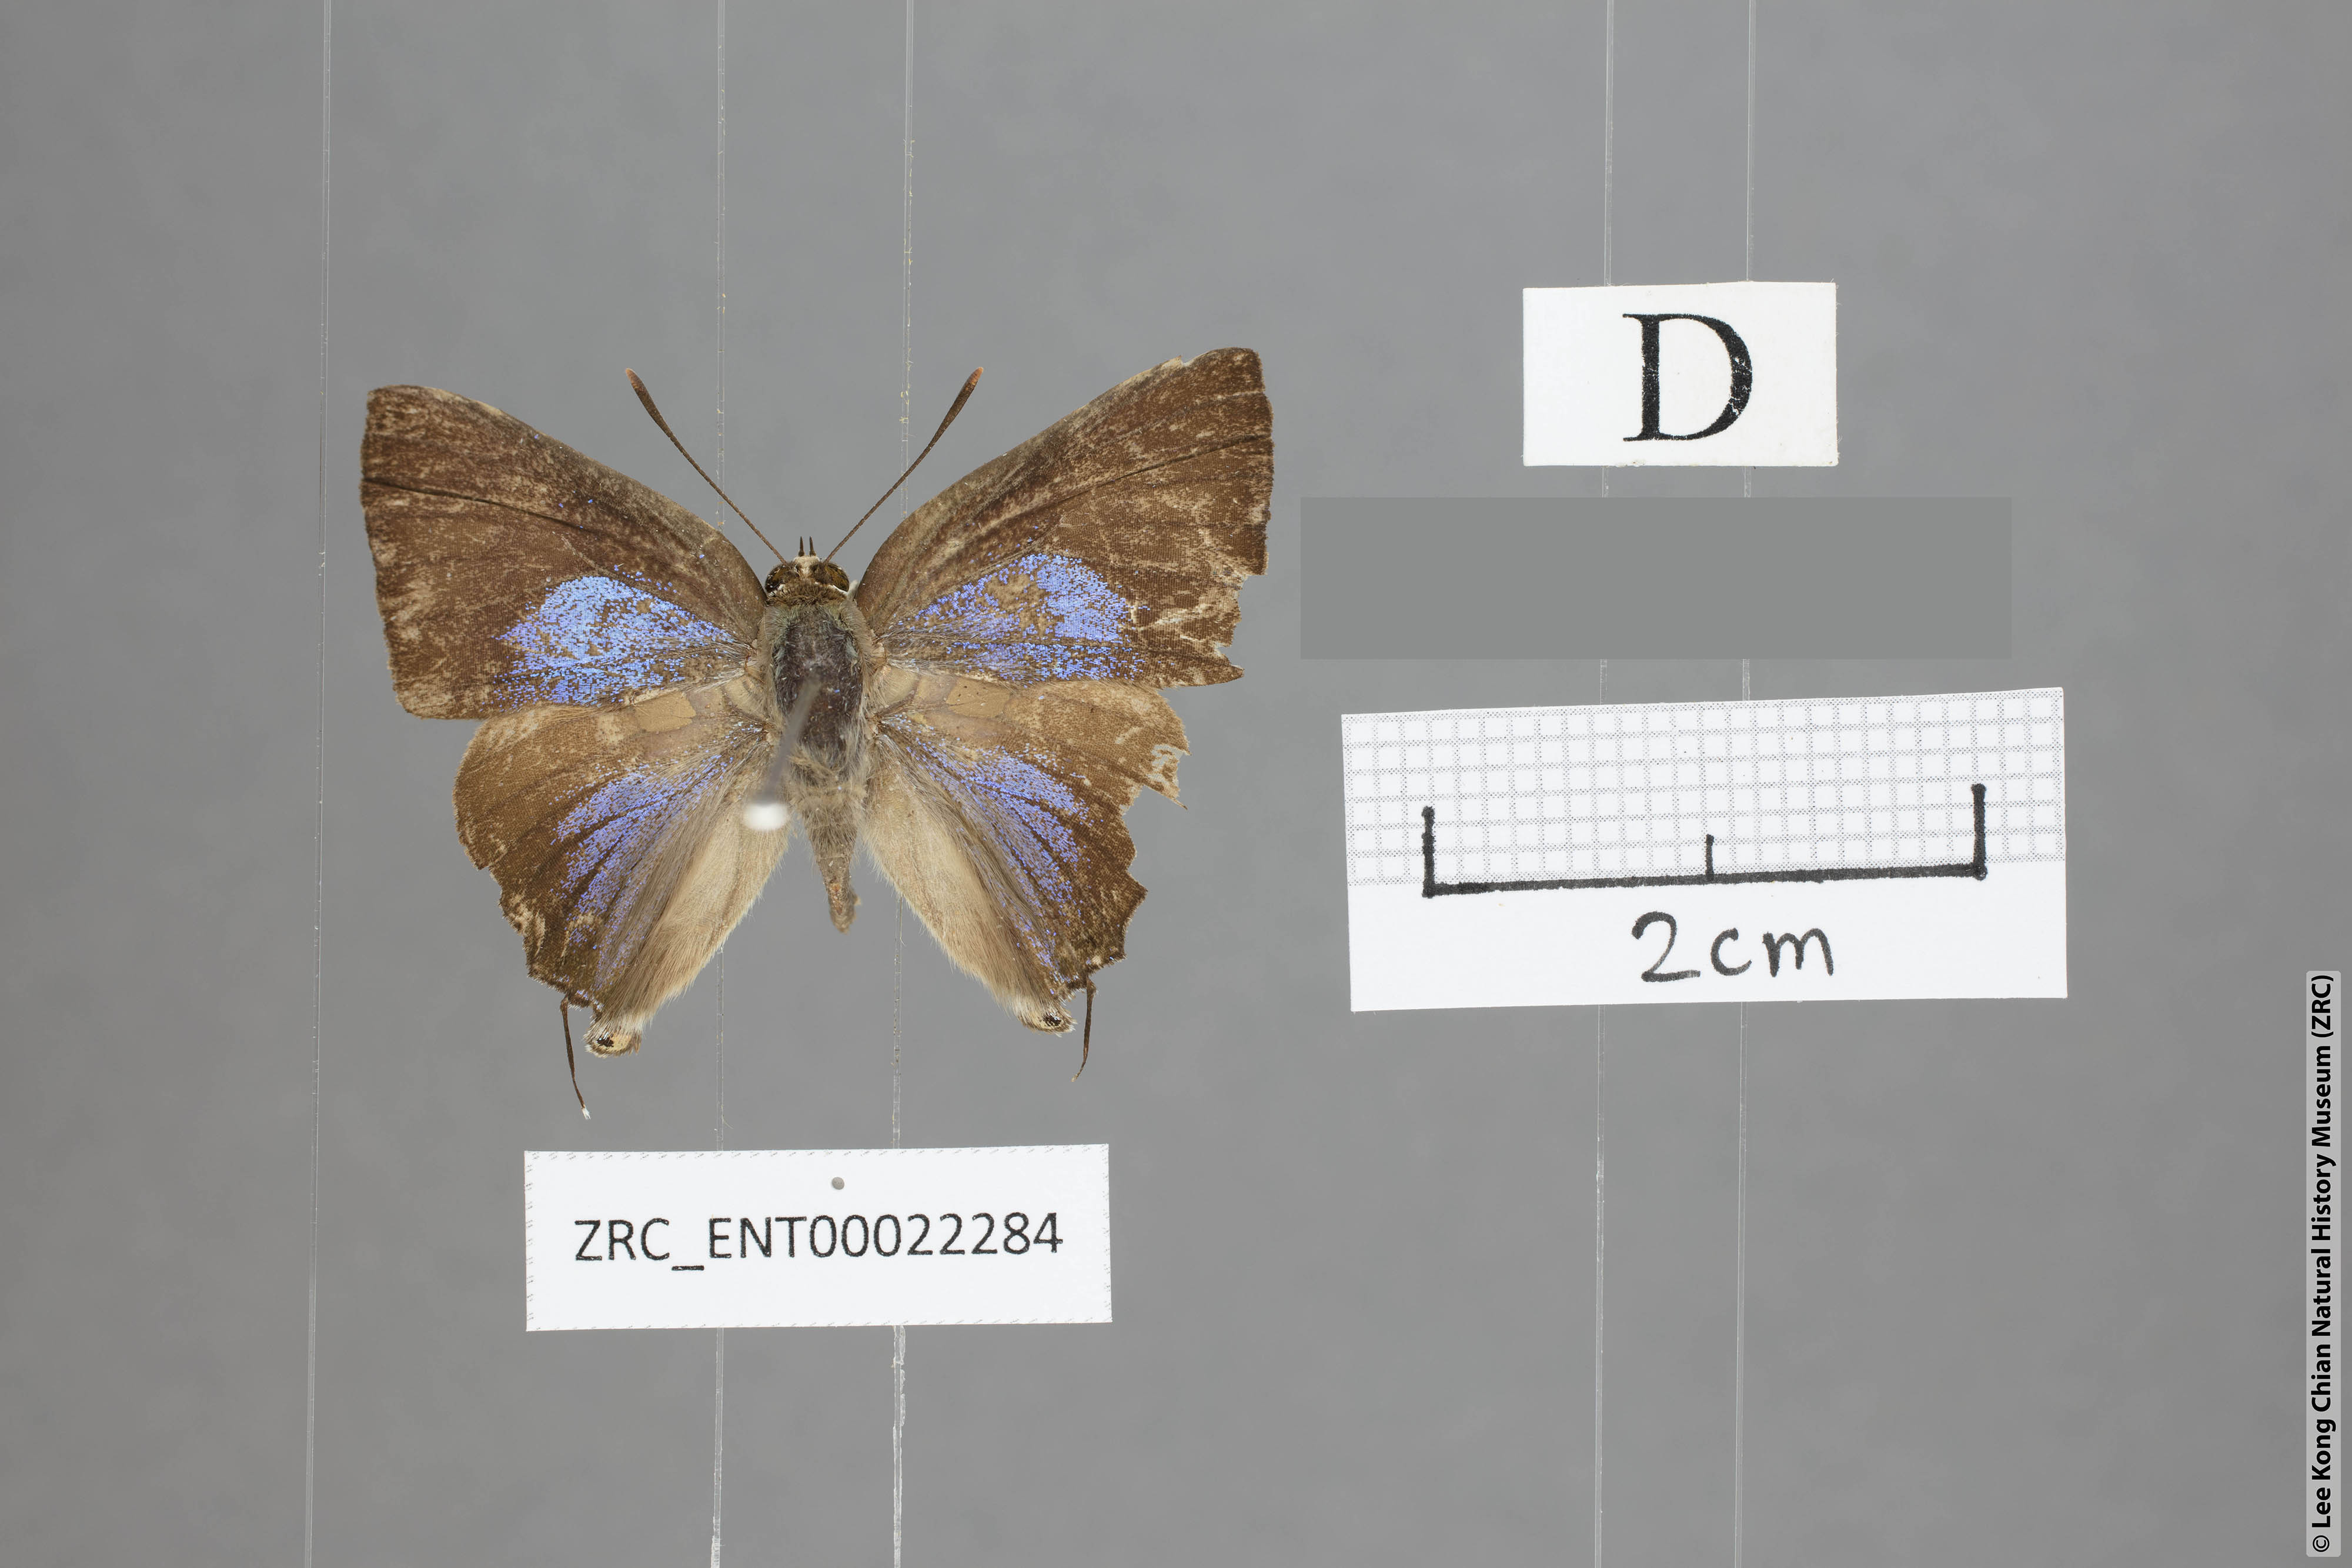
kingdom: Animalia
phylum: Arthropoda
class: Insecta
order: Lepidoptera
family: Lycaenidae
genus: Deudorix
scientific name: Deudorix smilis
